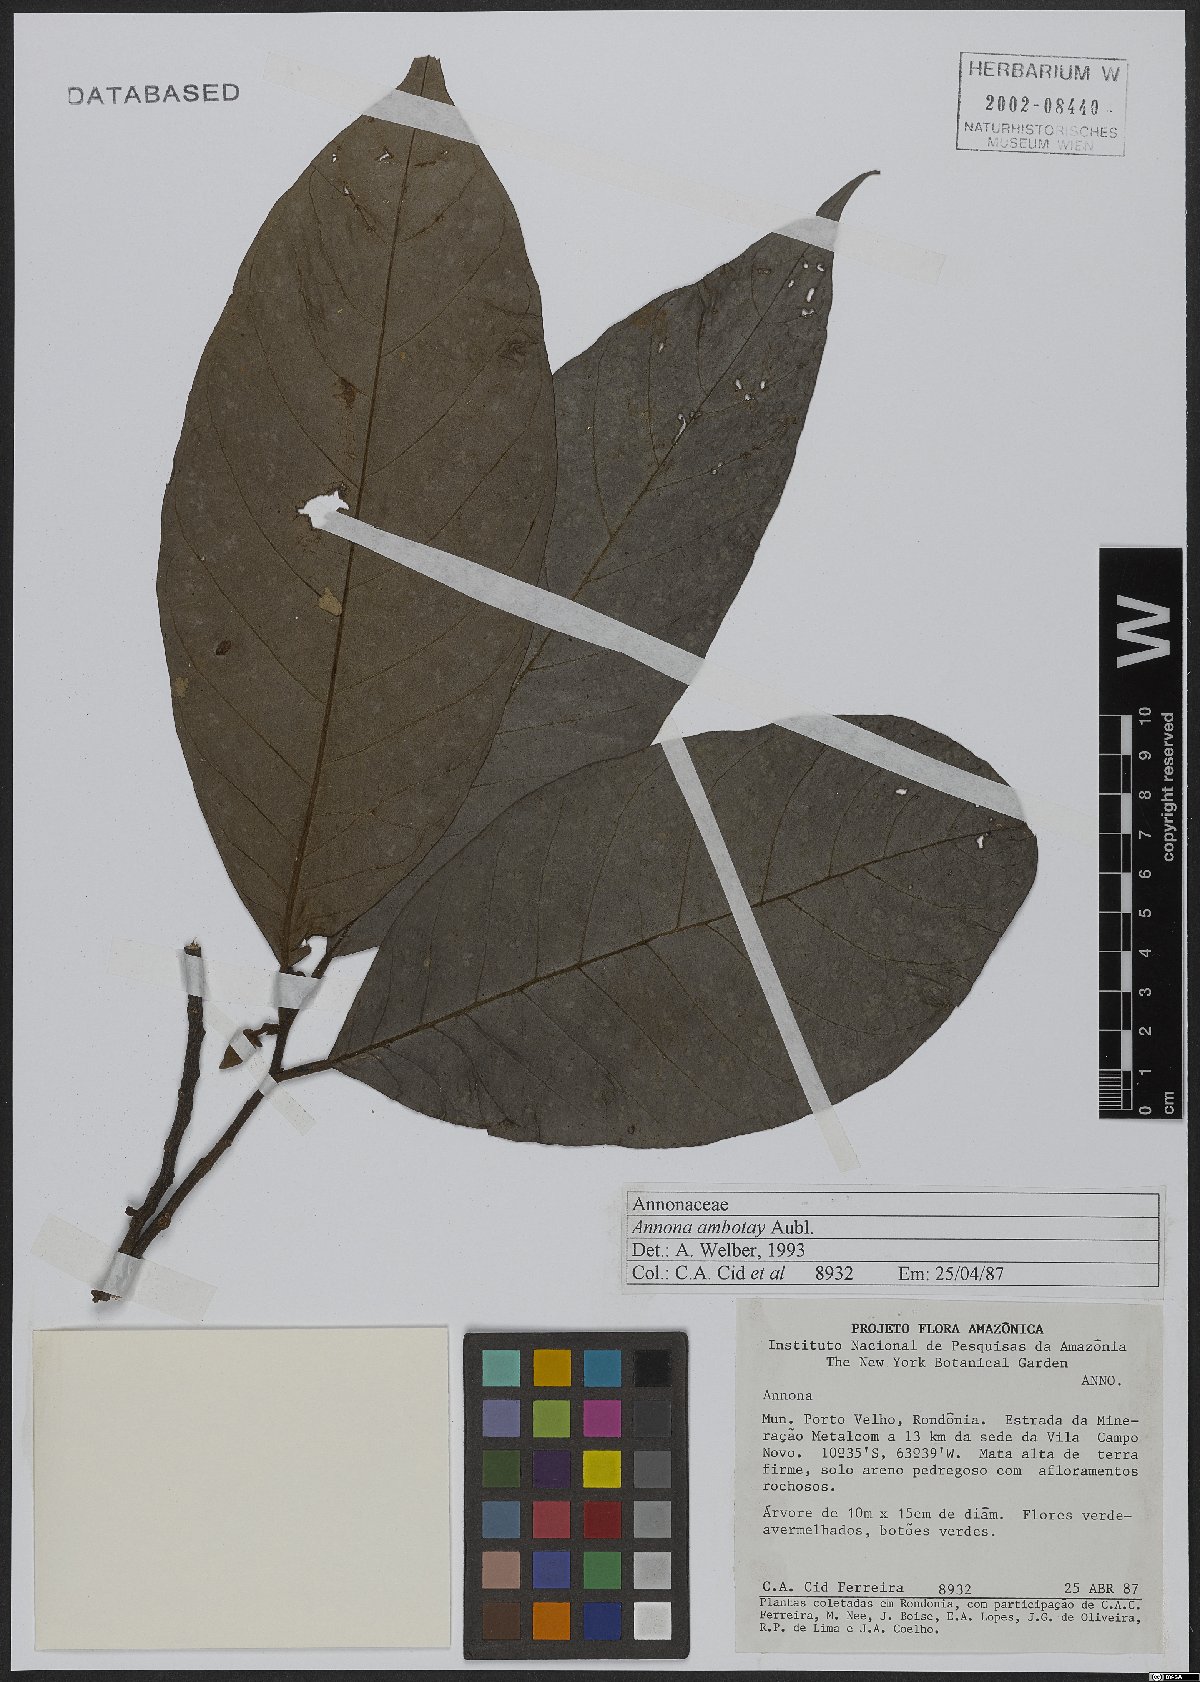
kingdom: Plantae
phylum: Tracheophyta
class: Magnoliopsida
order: Magnoliales
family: Annonaceae
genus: Annona
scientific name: Annona ambotay
